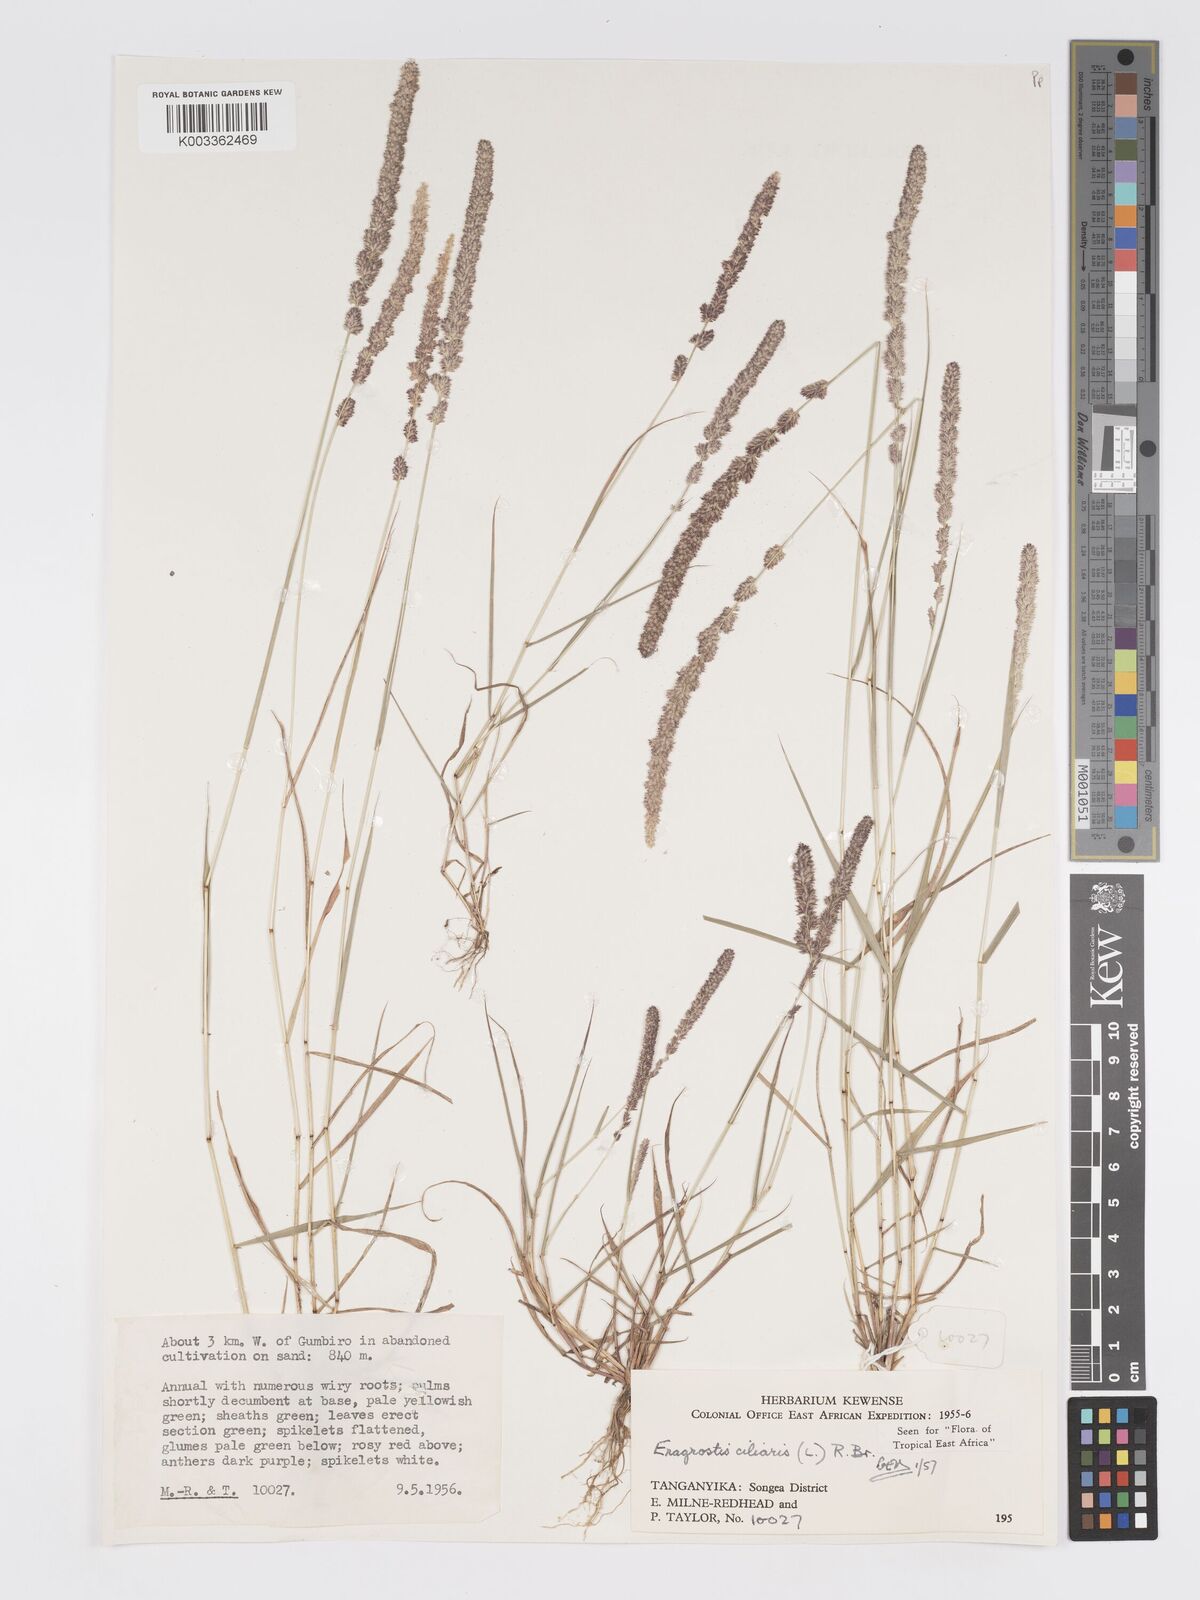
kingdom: Plantae
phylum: Tracheophyta
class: Liliopsida
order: Poales
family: Poaceae
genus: Eragrostis
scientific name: Eragrostis ciliaris
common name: Gophertail lovegrass
